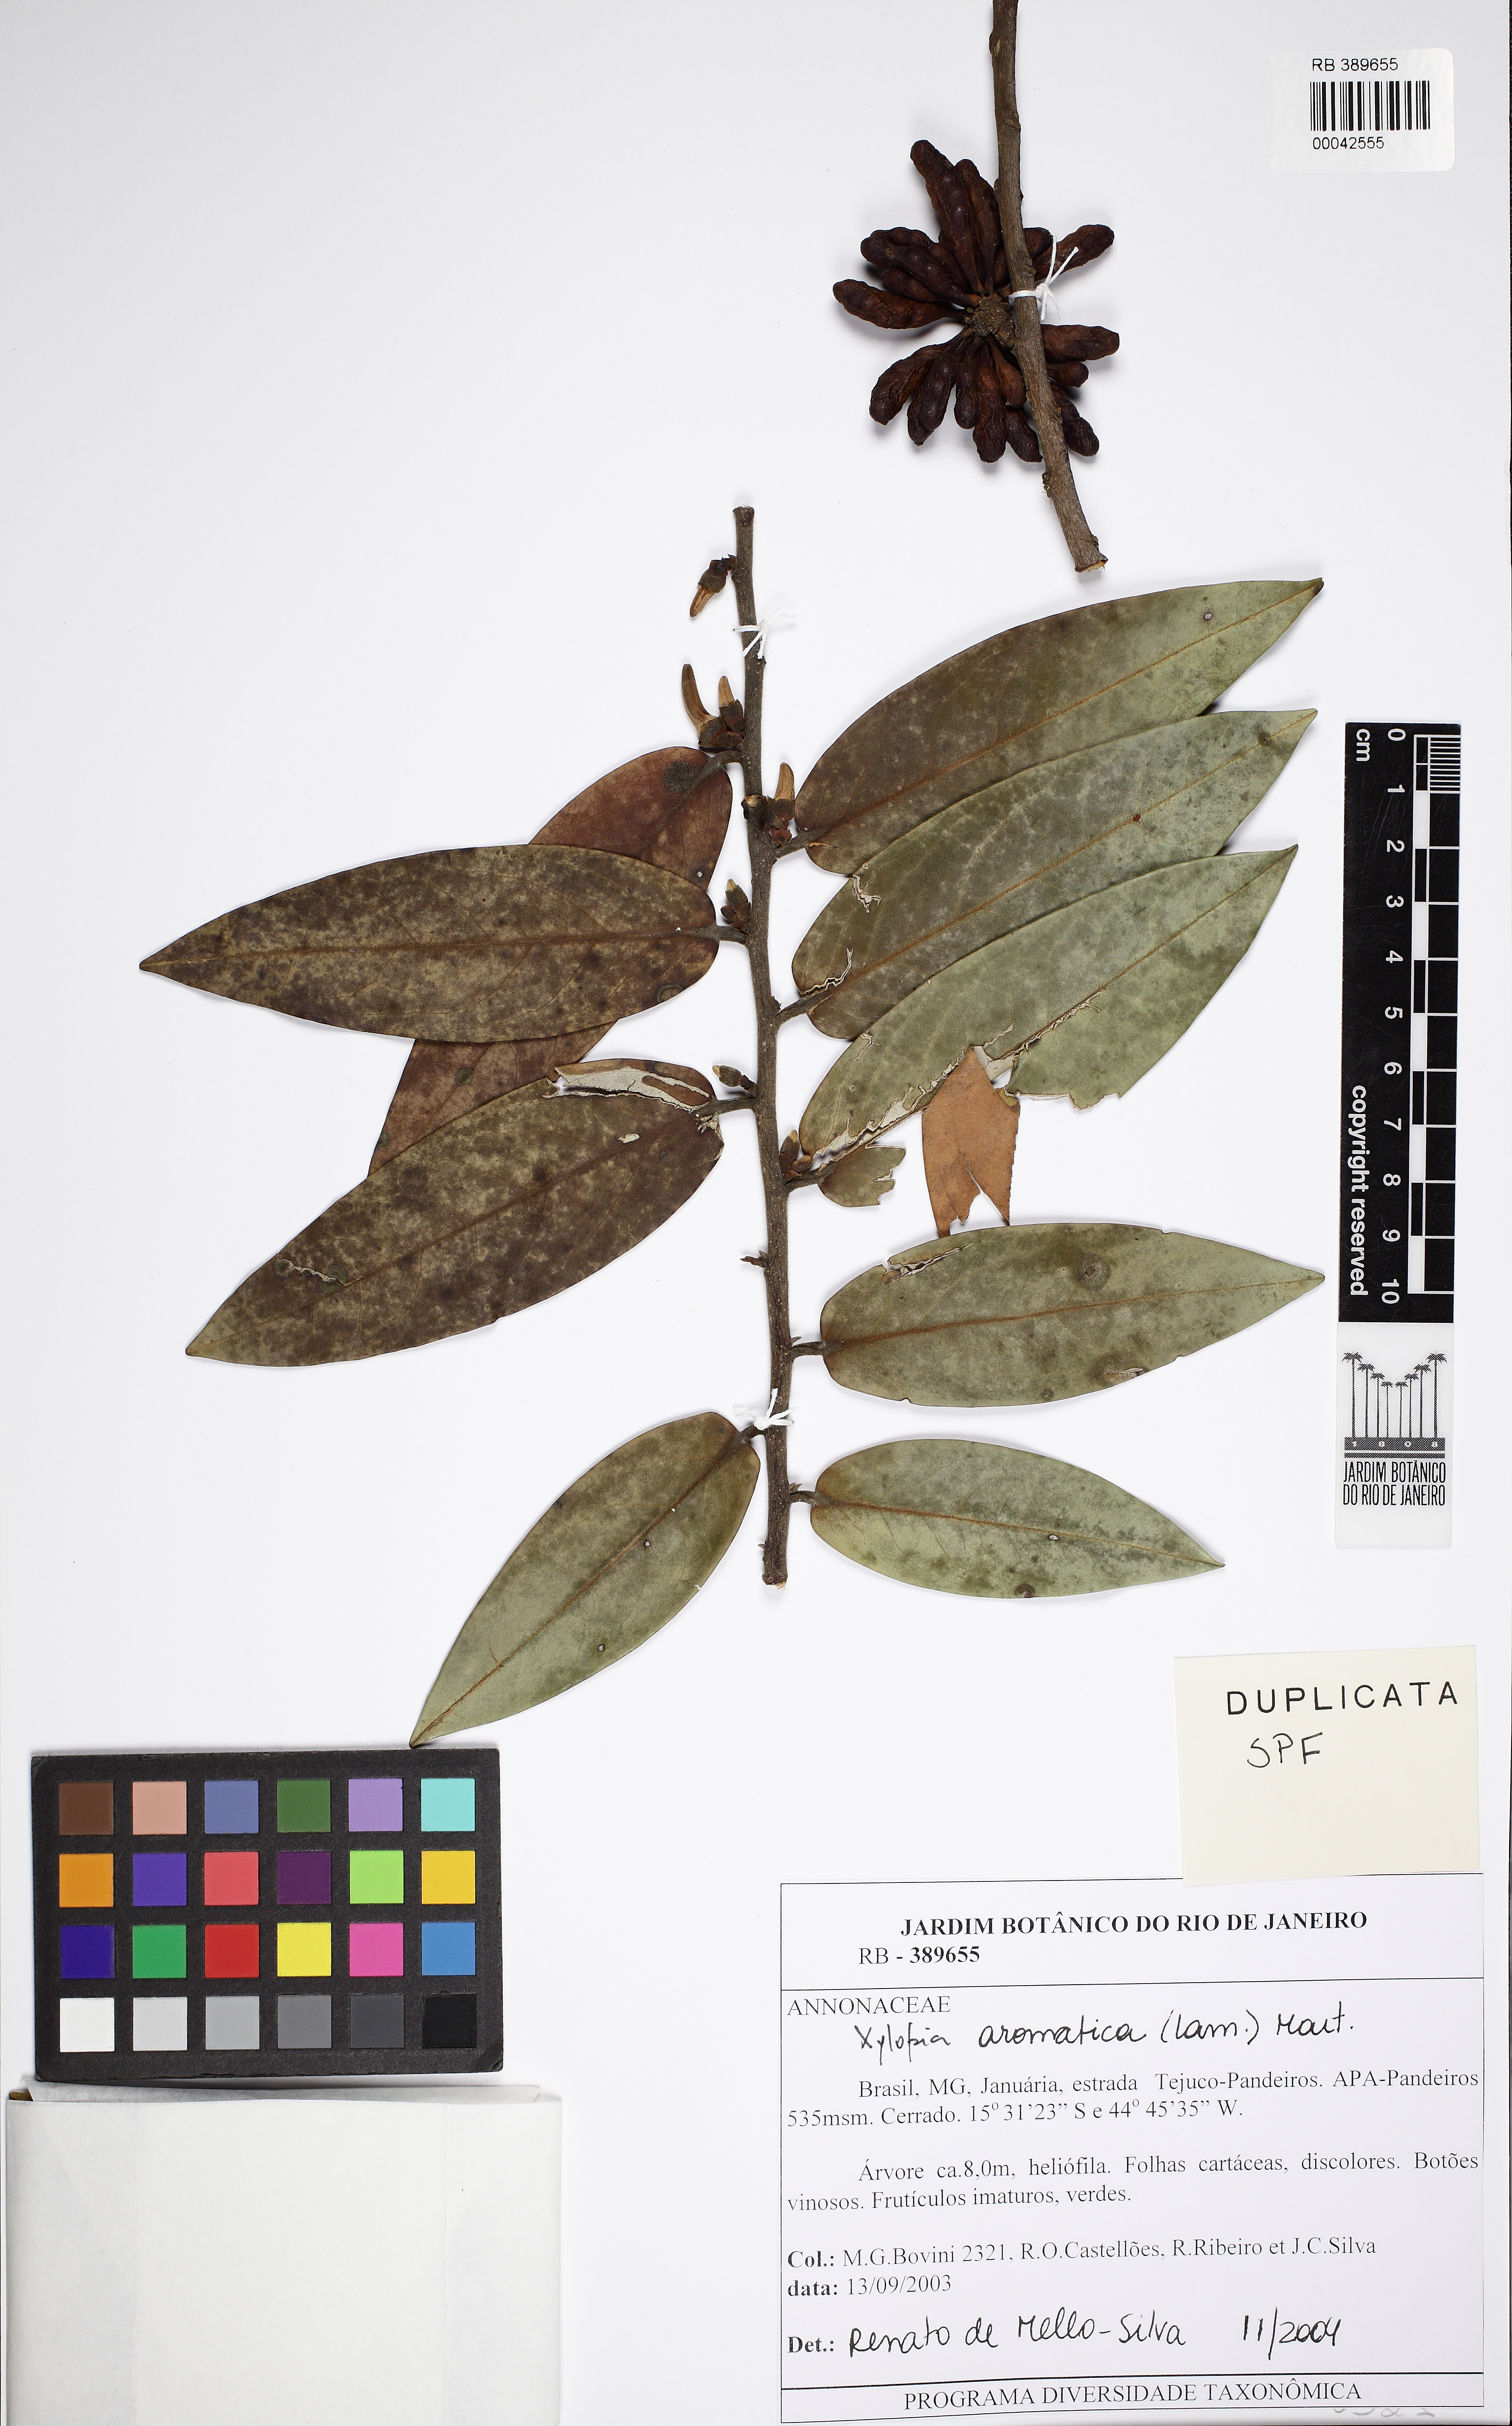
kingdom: Plantae
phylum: Tracheophyta
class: Magnoliopsida
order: Magnoliales
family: Annonaceae
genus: Xylopia
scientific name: Xylopia aromatica
